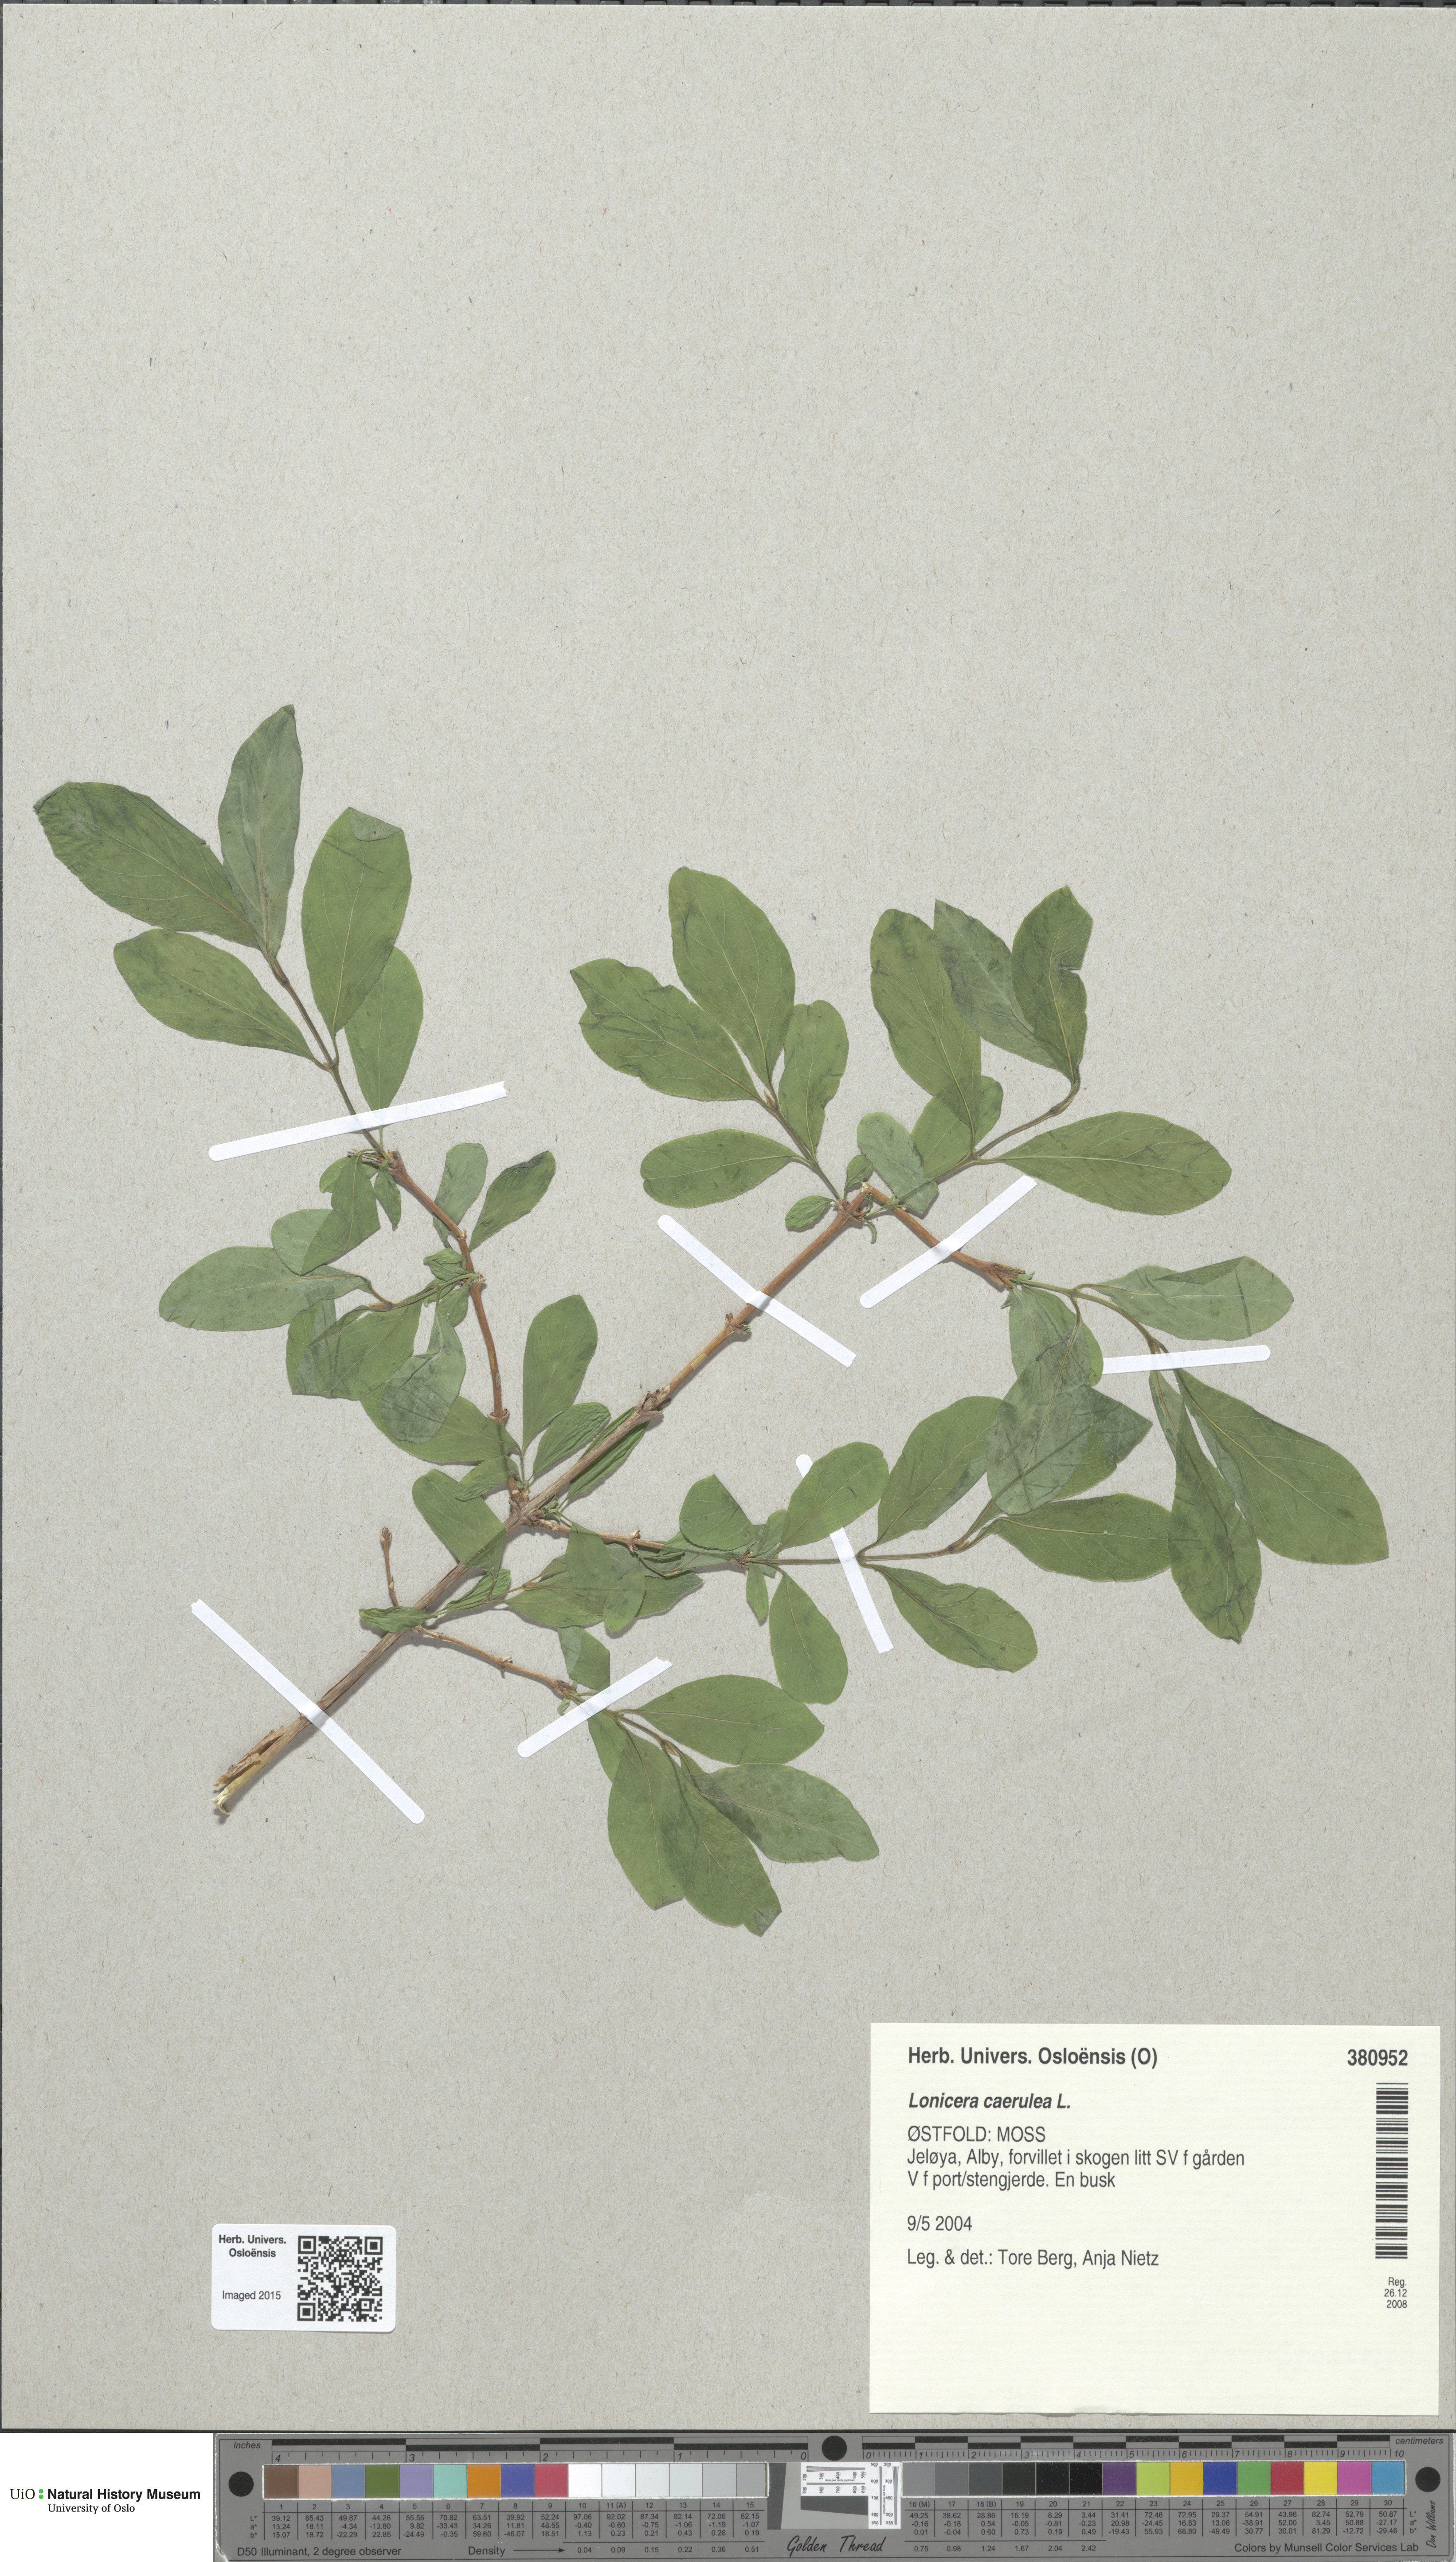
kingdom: Plantae
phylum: Tracheophyta
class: Magnoliopsida
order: Dipsacales
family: Caprifoliaceae
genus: Lonicera
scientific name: Lonicera caerulea
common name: Blue honeysuckle
